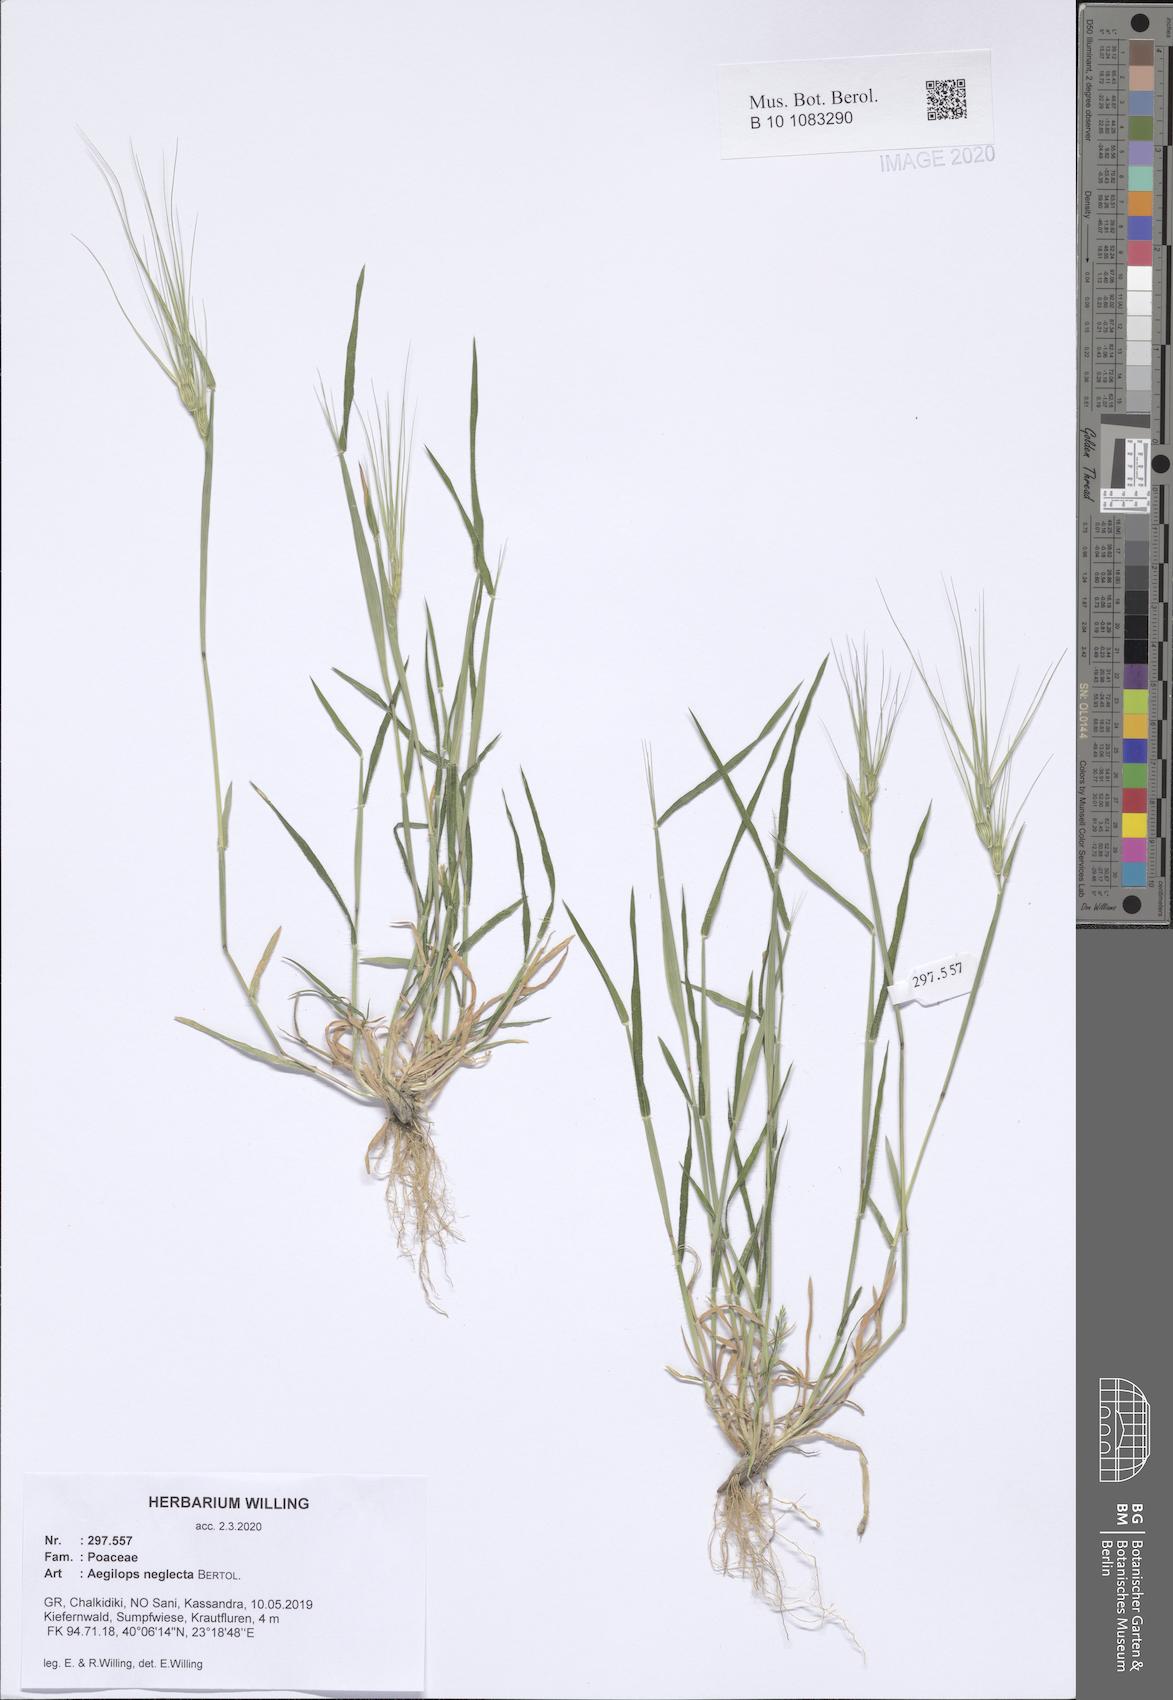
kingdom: Plantae
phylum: Tracheophyta
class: Liliopsida
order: Poales
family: Poaceae
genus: Aegilops
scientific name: Aegilops neglecta
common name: Three-awn goat grass
